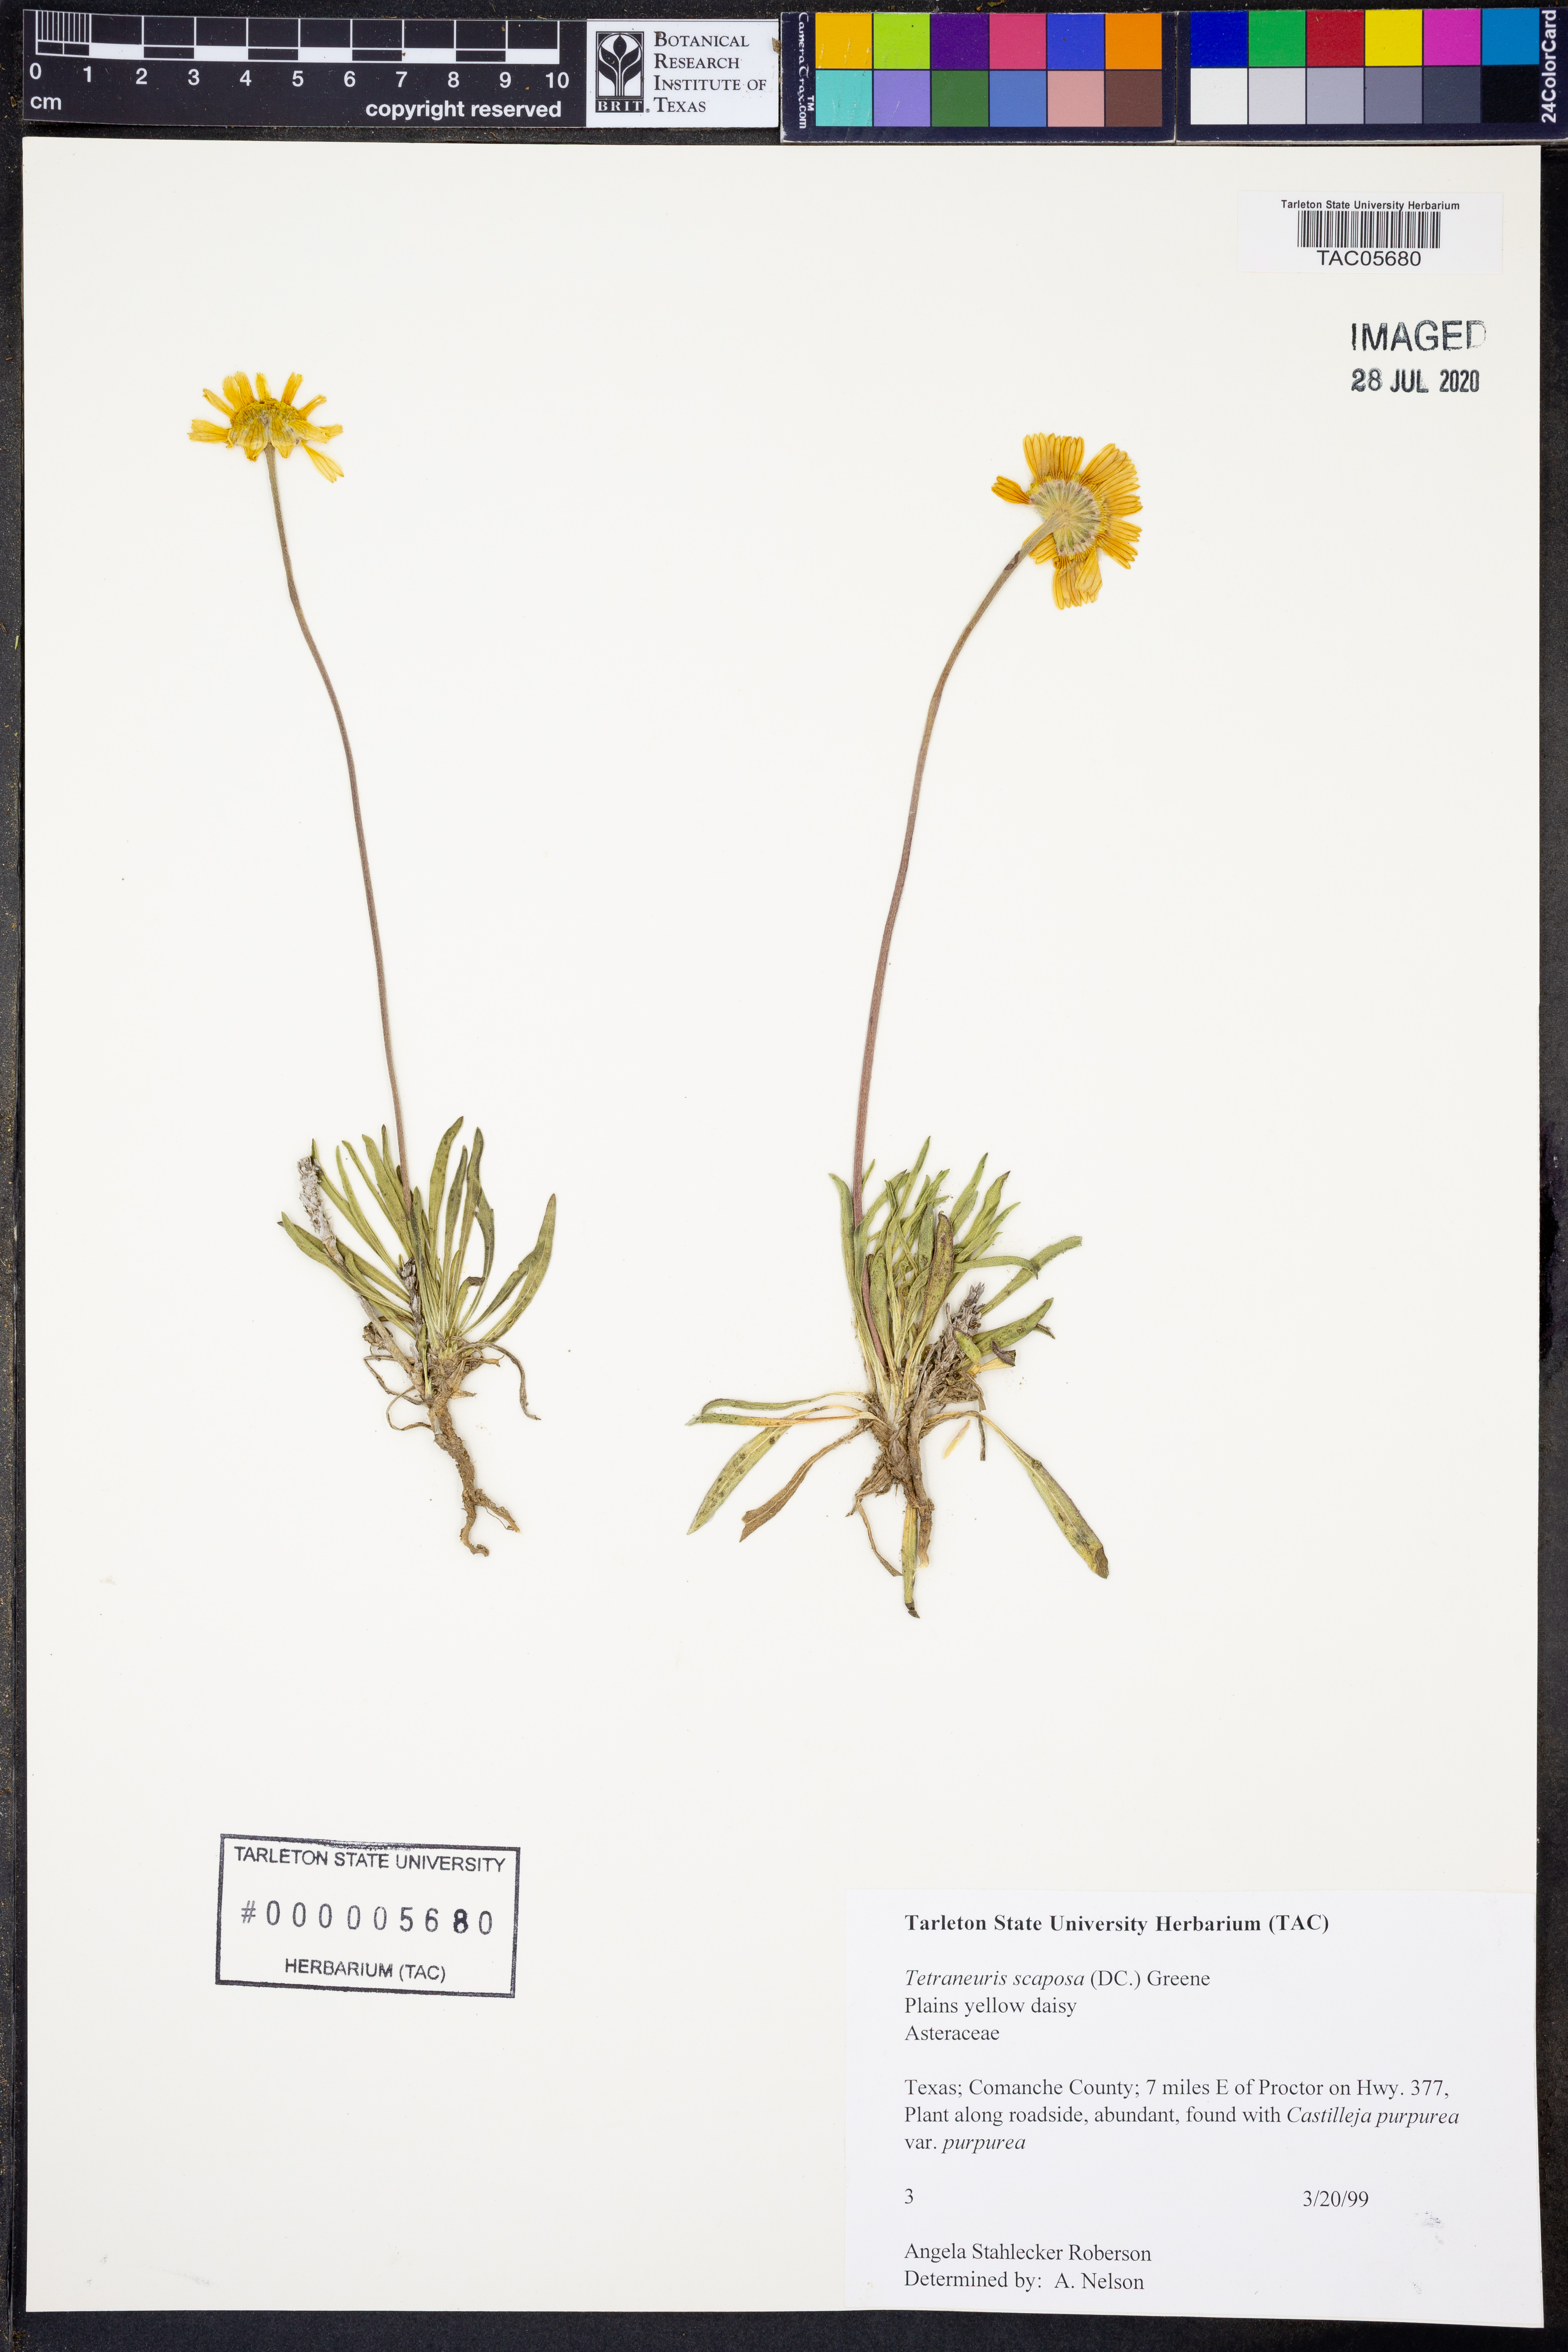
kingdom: Plantae
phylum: Tracheophyta
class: Magnoliopsida
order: Asterales
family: Asteraceae
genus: Tetraneuris
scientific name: Tetraneuris scaposa
